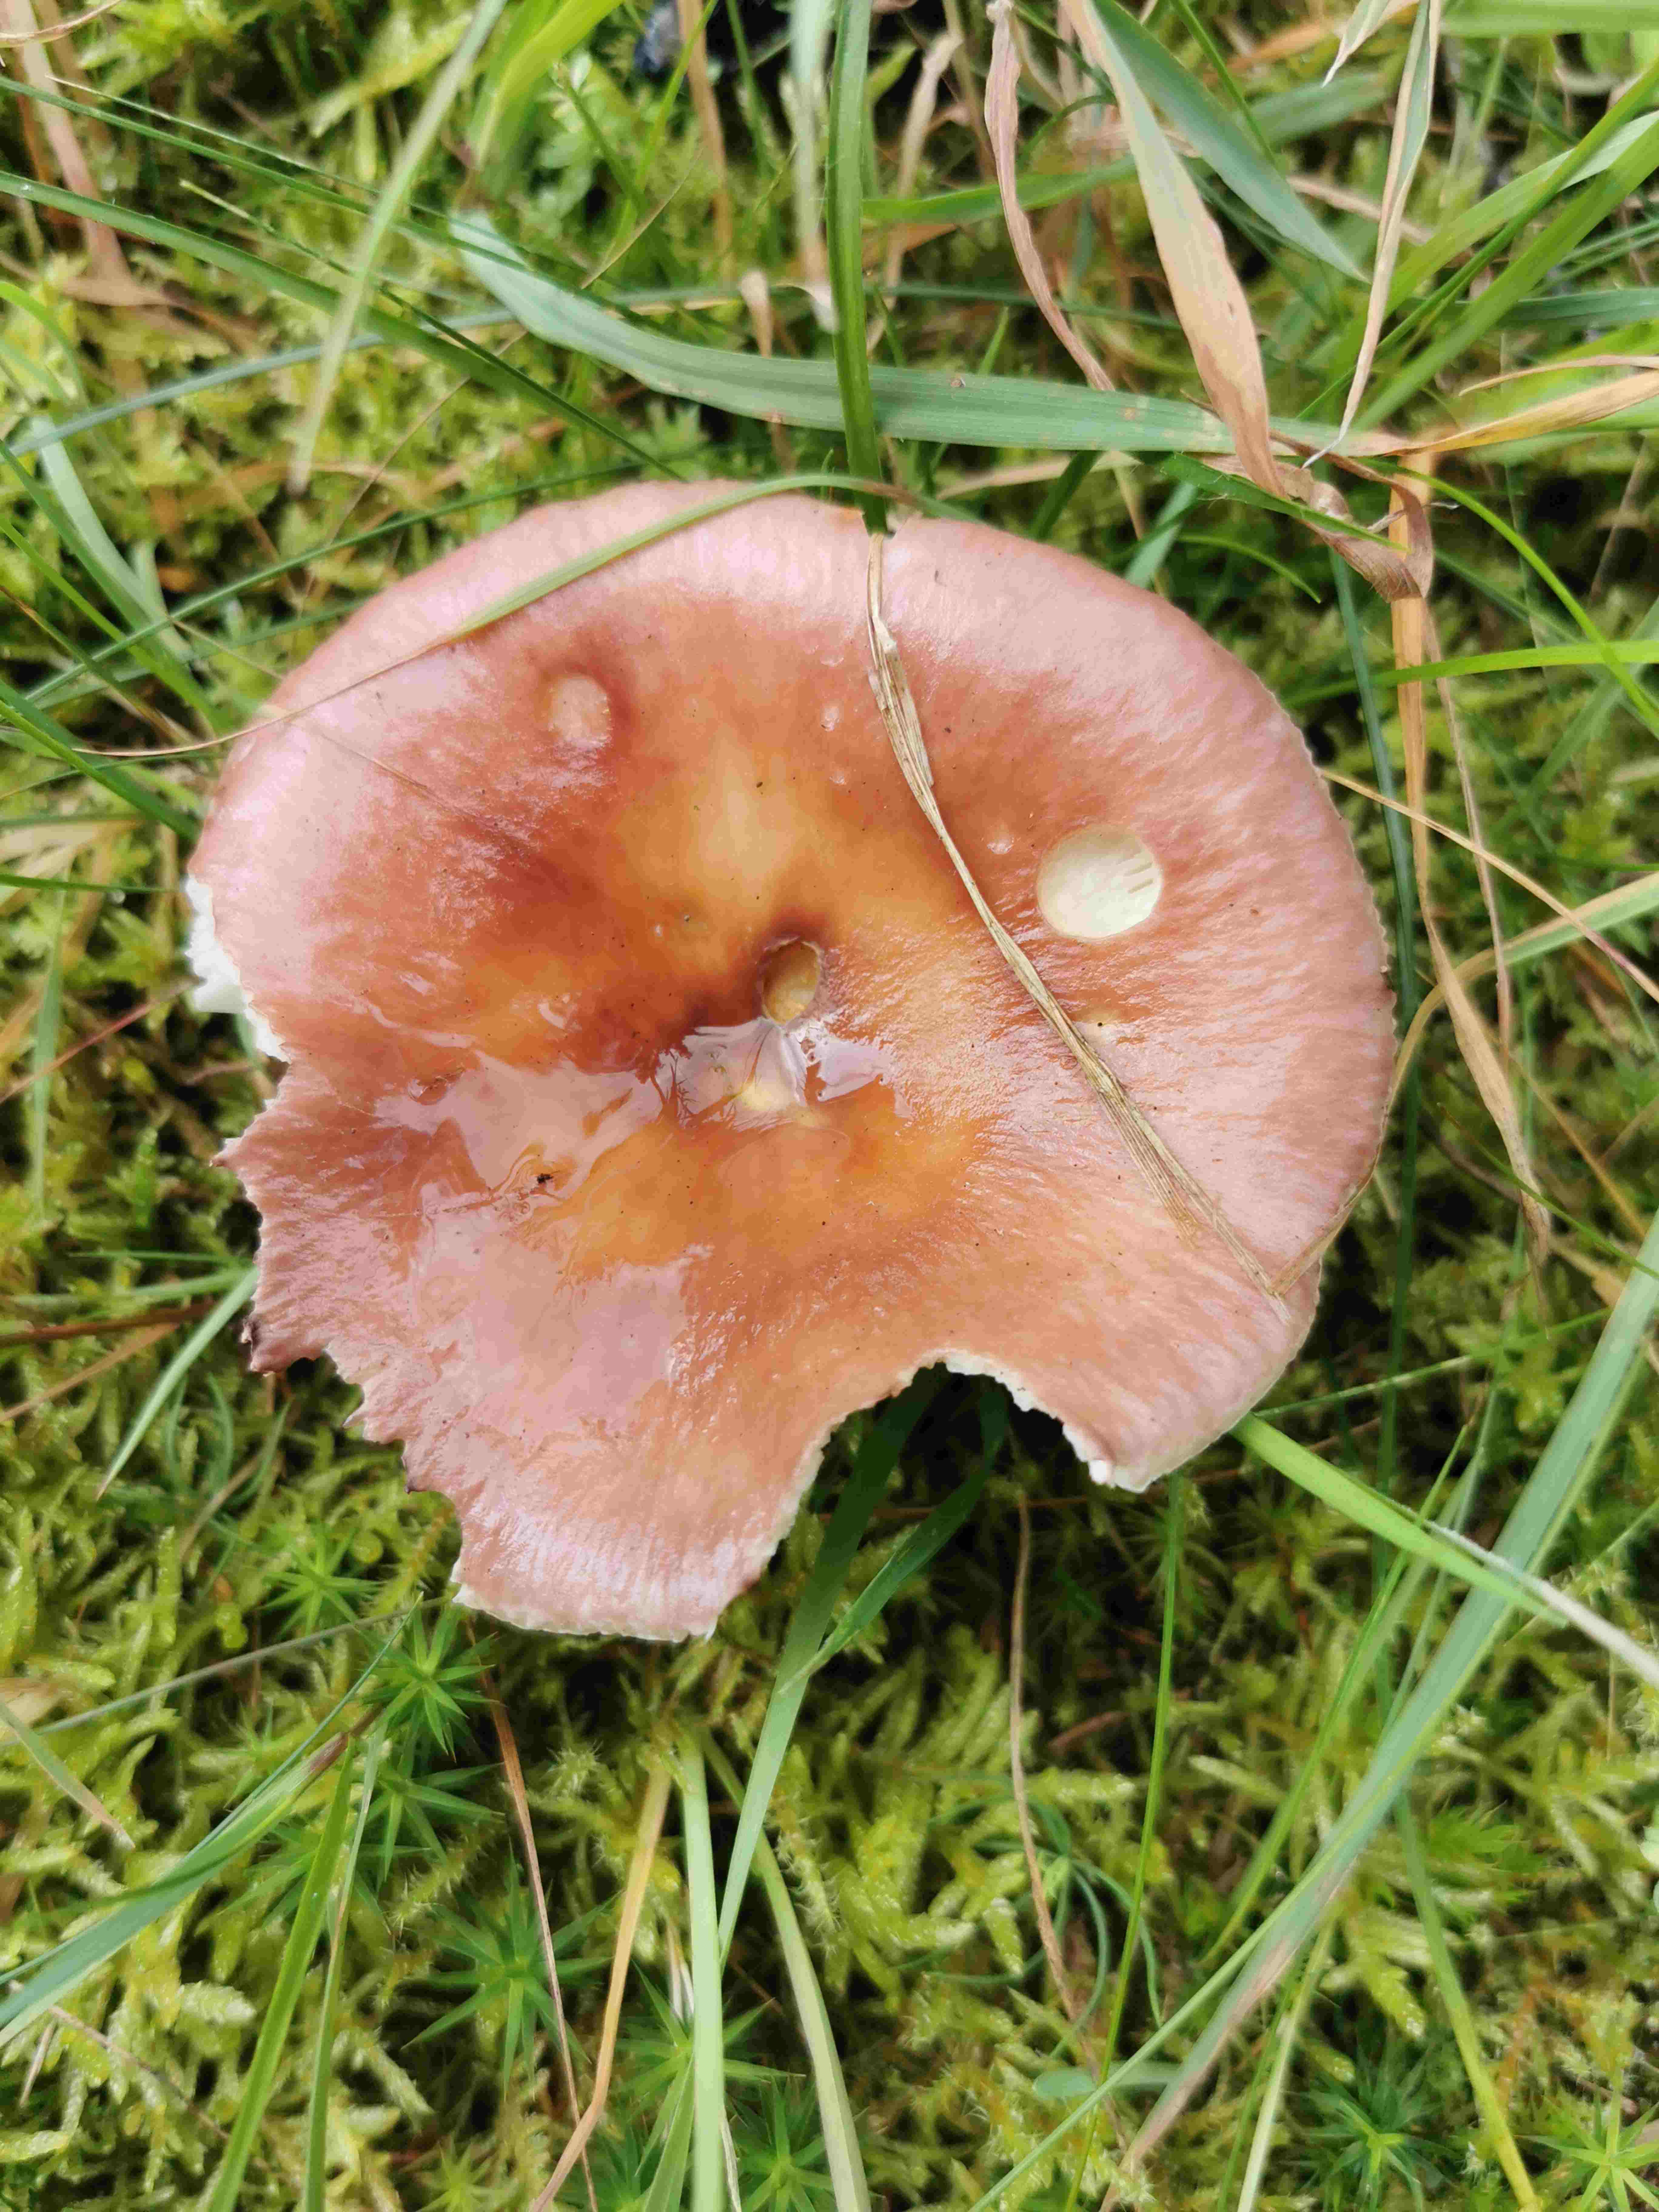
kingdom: Fungi
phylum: Basidiomycota
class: Agaricomycetes
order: Russulales
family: Russulaceae
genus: Russula
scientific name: Russula vesca
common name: spiselig skørhat
